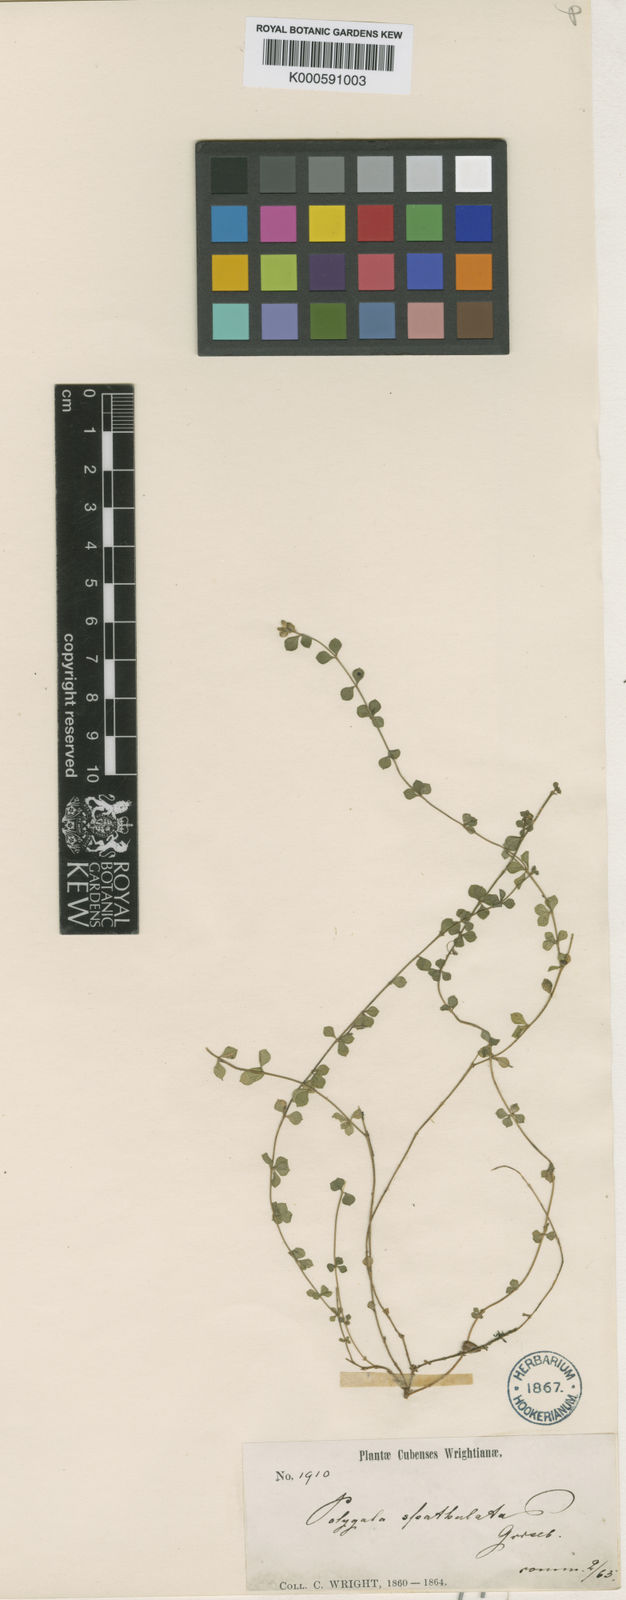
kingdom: Plantae
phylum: Tracheophyta
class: Magnoliopsida
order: Fabales
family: Polygalaceae
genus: Polygala
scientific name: Polygala spathulata
